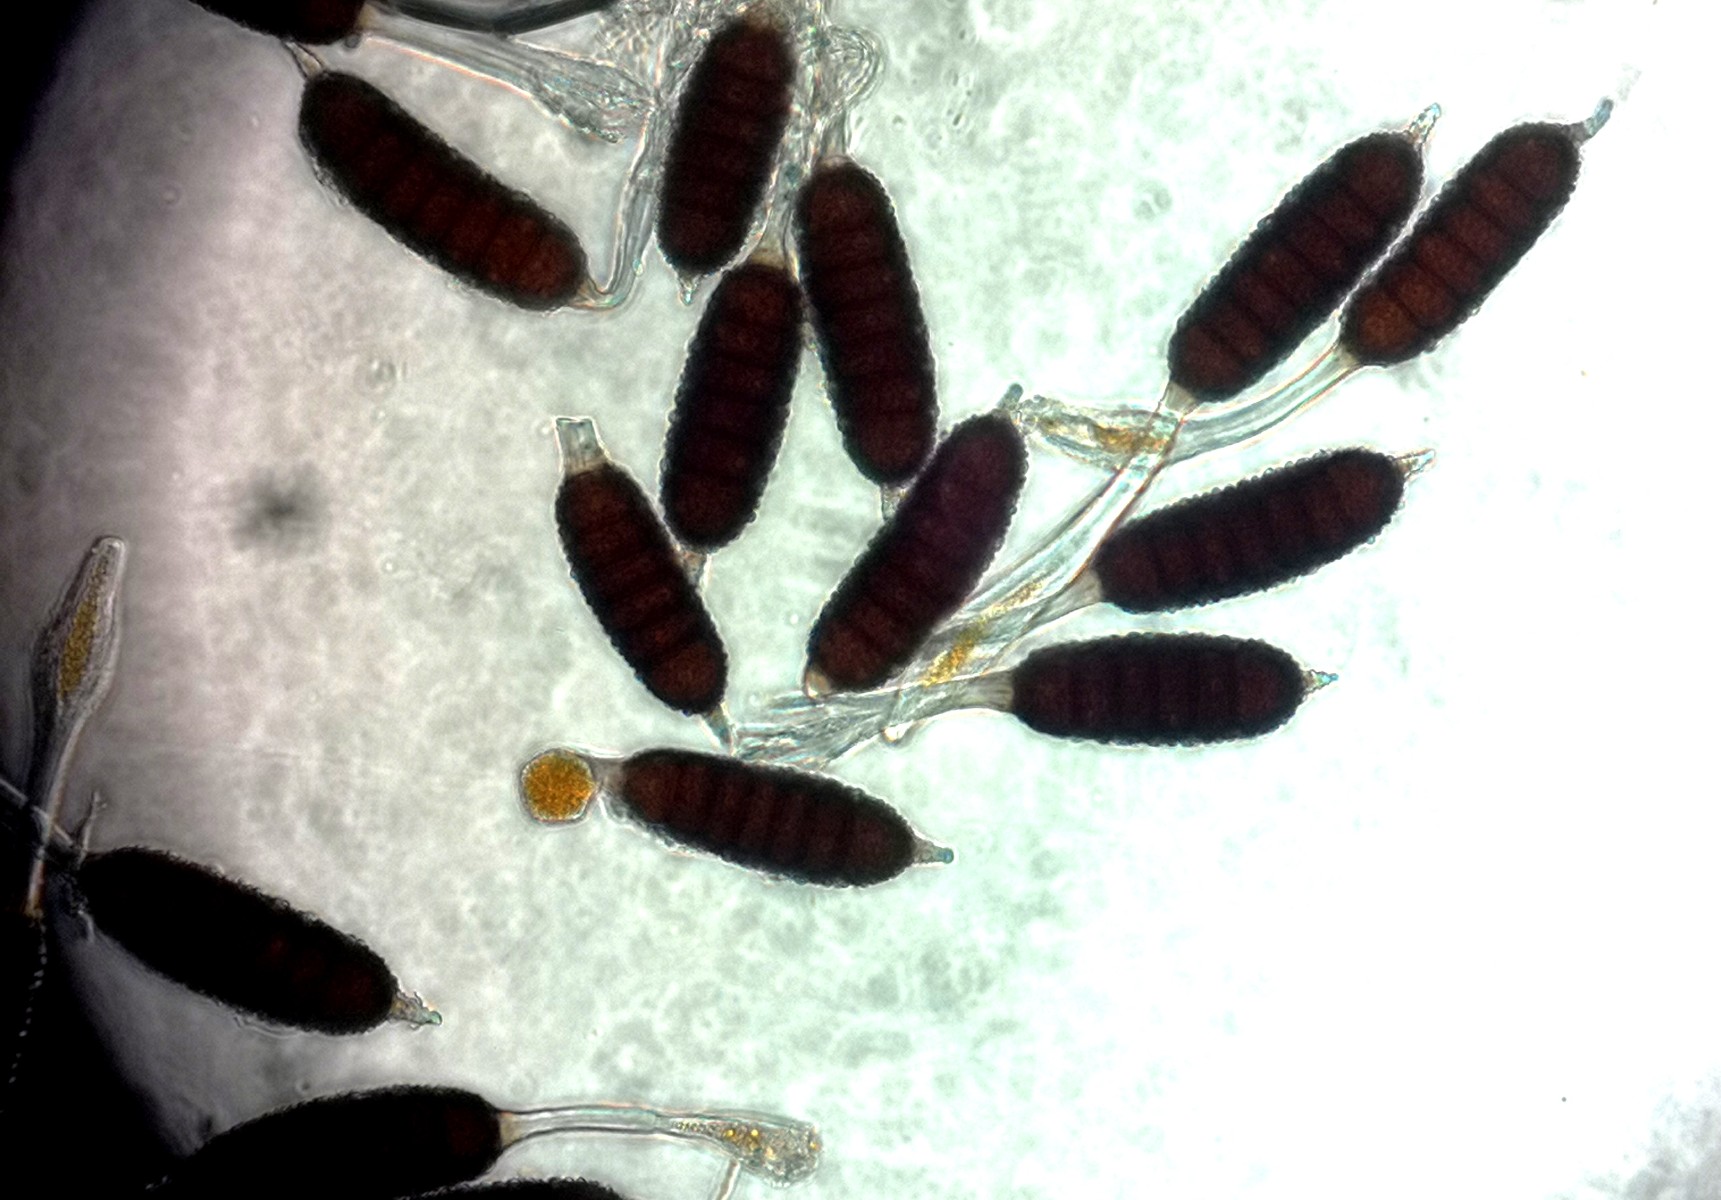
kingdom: Fungi
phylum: Basidiomycota
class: Pucciniomycetes
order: Pucciniales
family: Phragmidiaceae
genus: Phragmidium
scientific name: Phragmidium mucronatum
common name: rose-flercellerust
